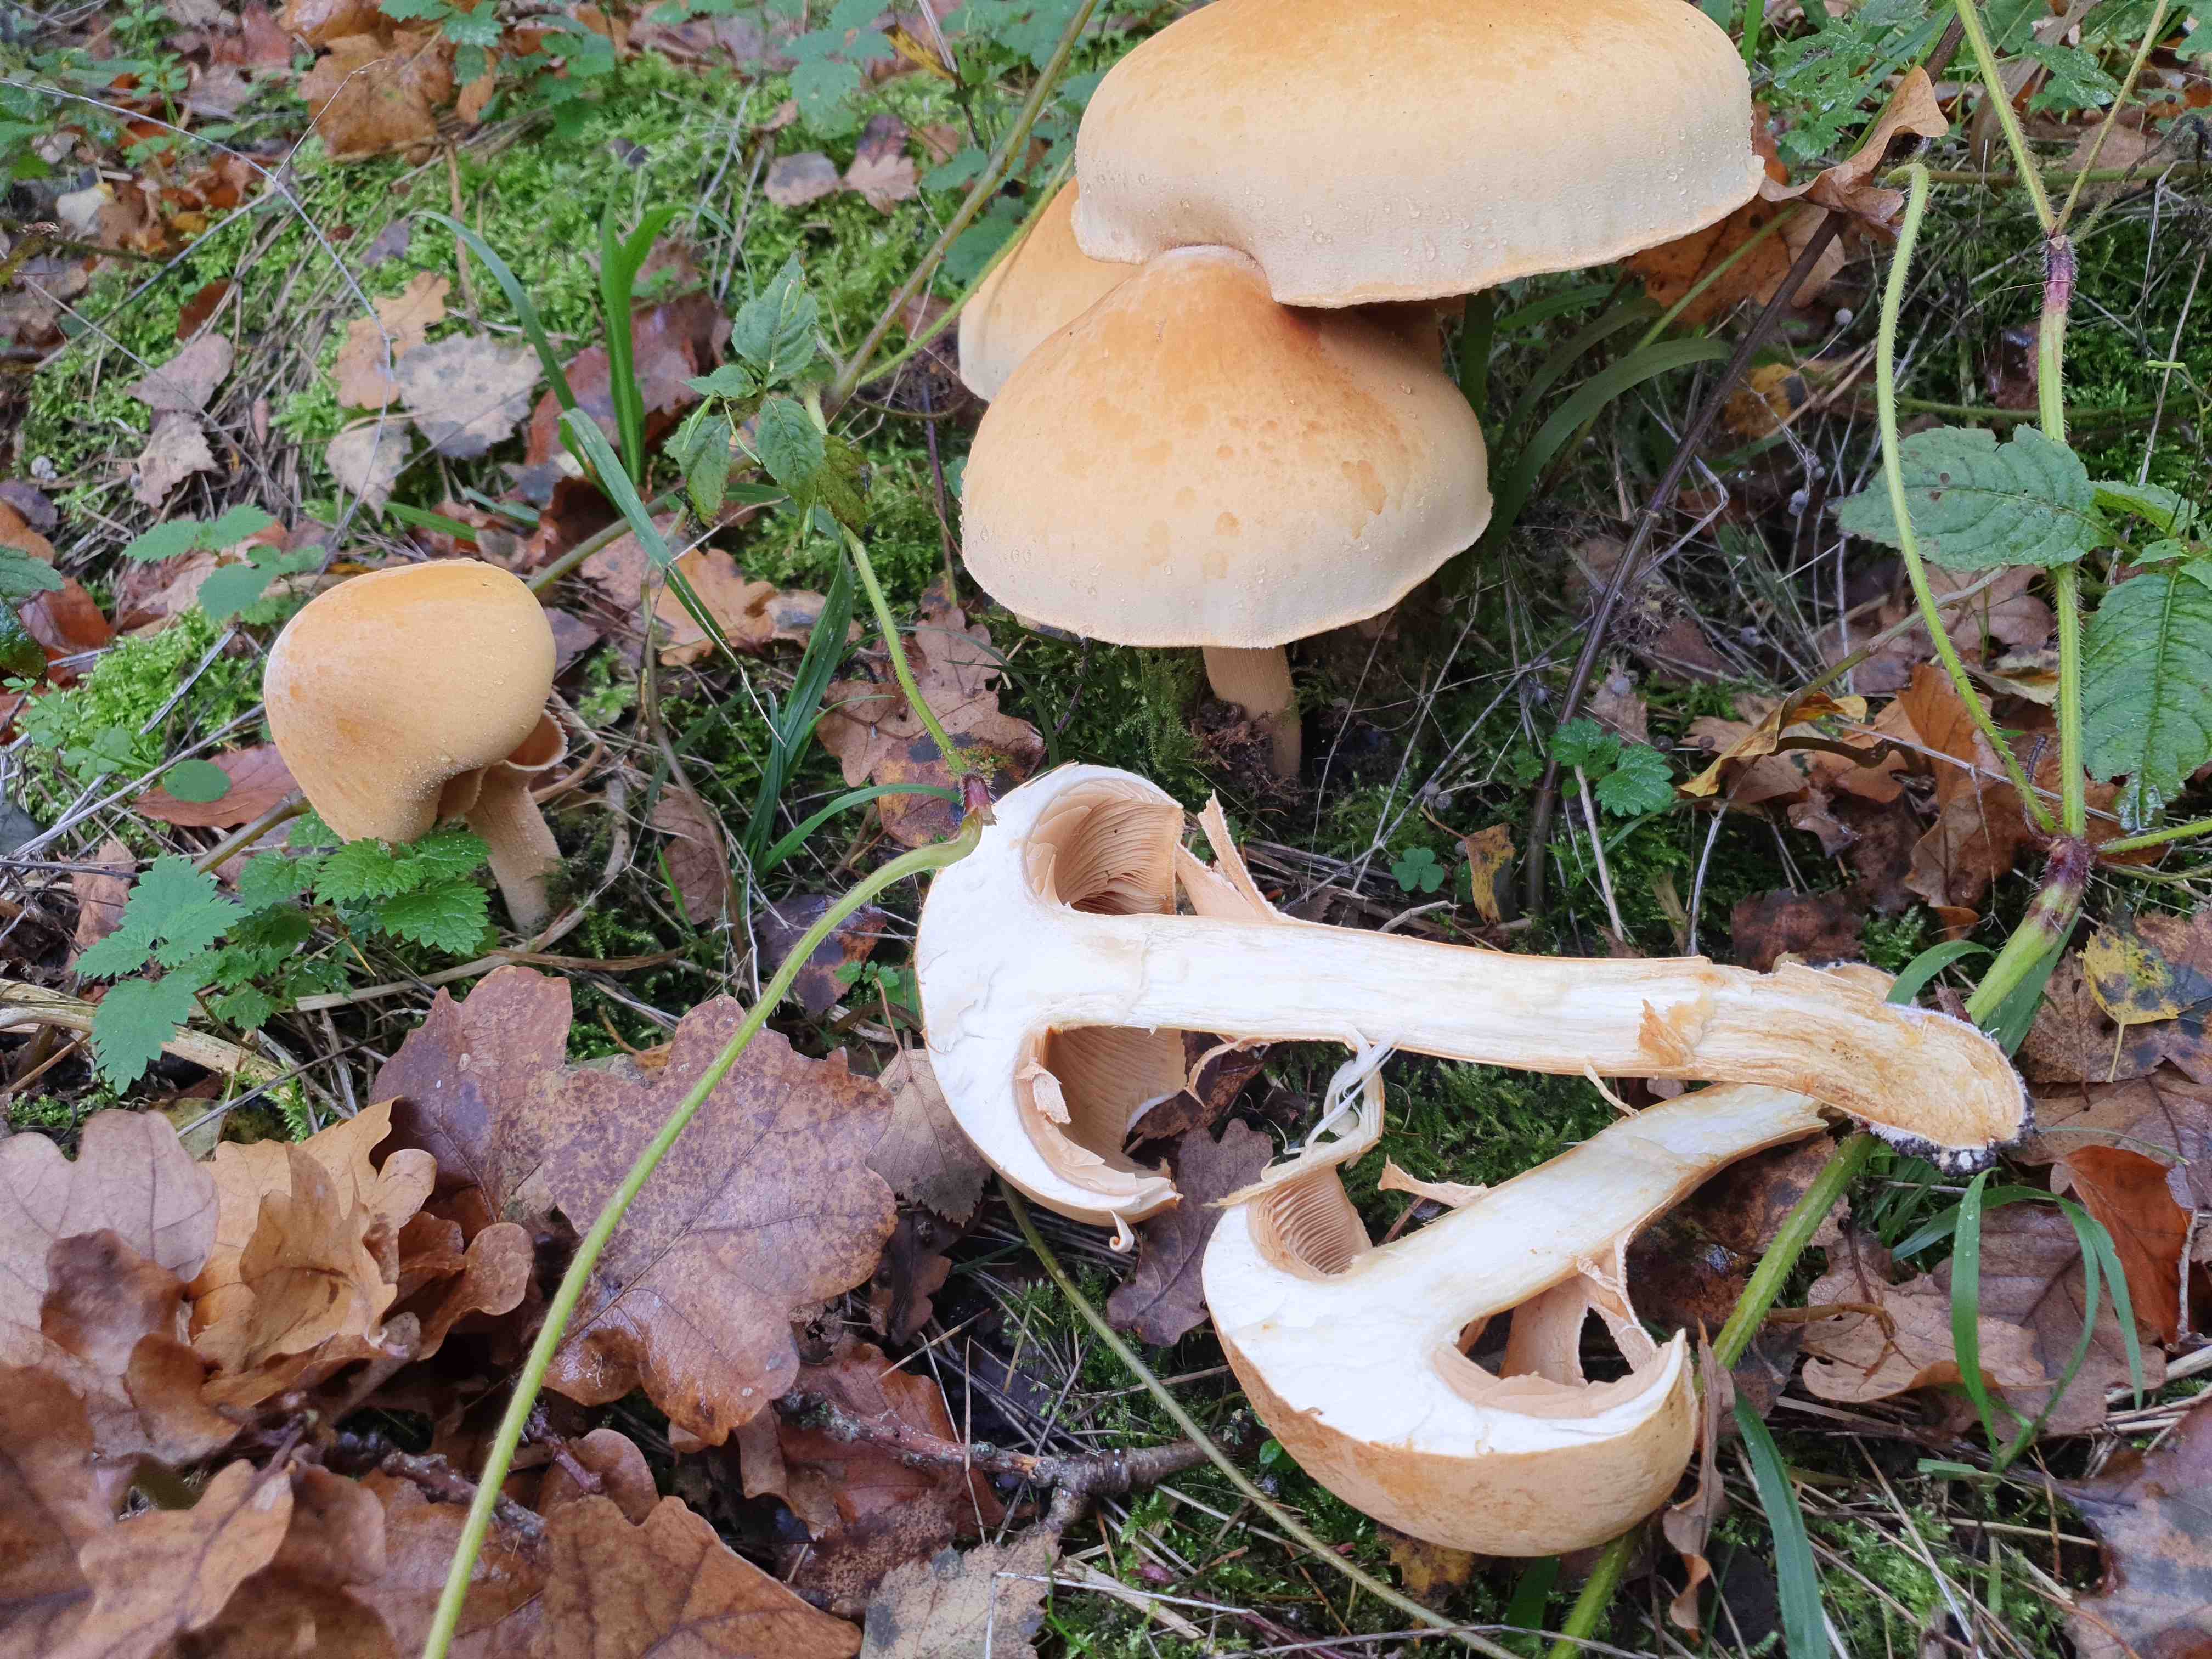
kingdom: Fungi
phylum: Basidiomycota
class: Agaricomycetes
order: Agaricales
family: Tricholomataceae
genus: Phaeolepiota
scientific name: Phaeolepiota aurea
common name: gyldenhat
